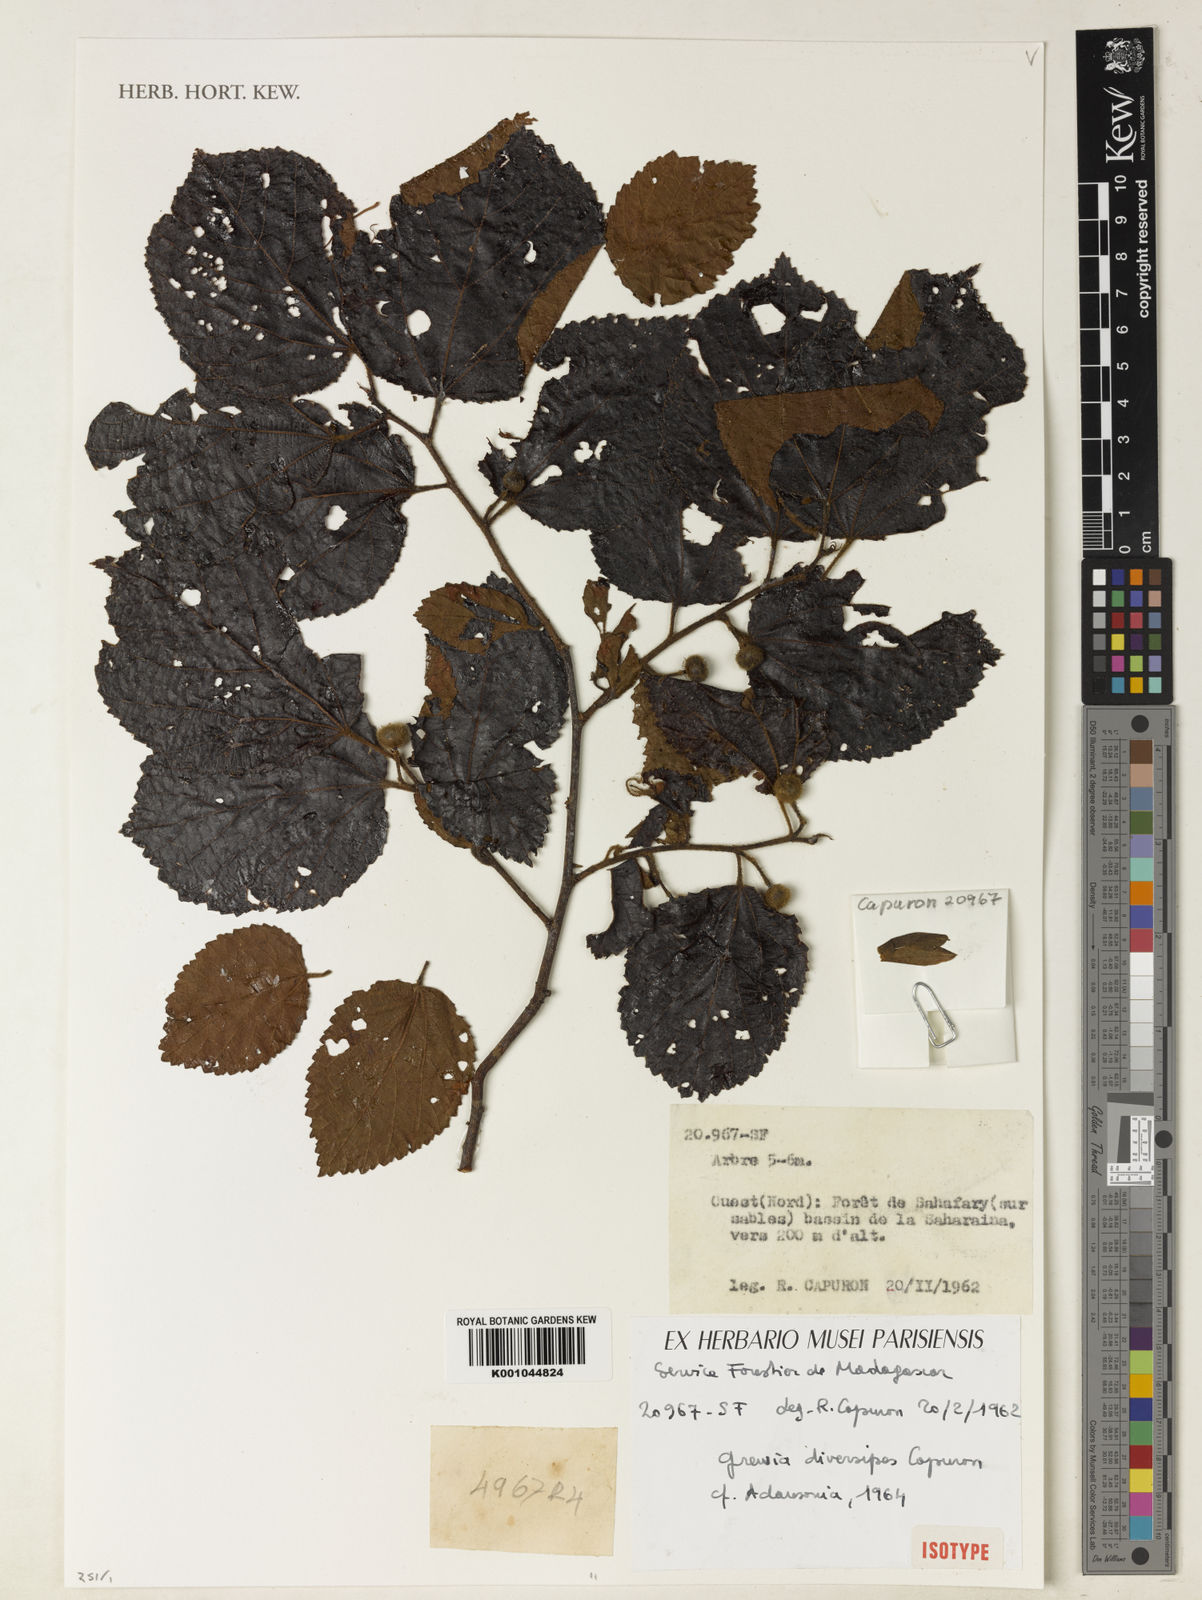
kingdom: Plantae
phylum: Tracheophyta
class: Magnoliopsida
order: Malvales
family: Malvaceae
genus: Grewia
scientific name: Grewia diversipes
